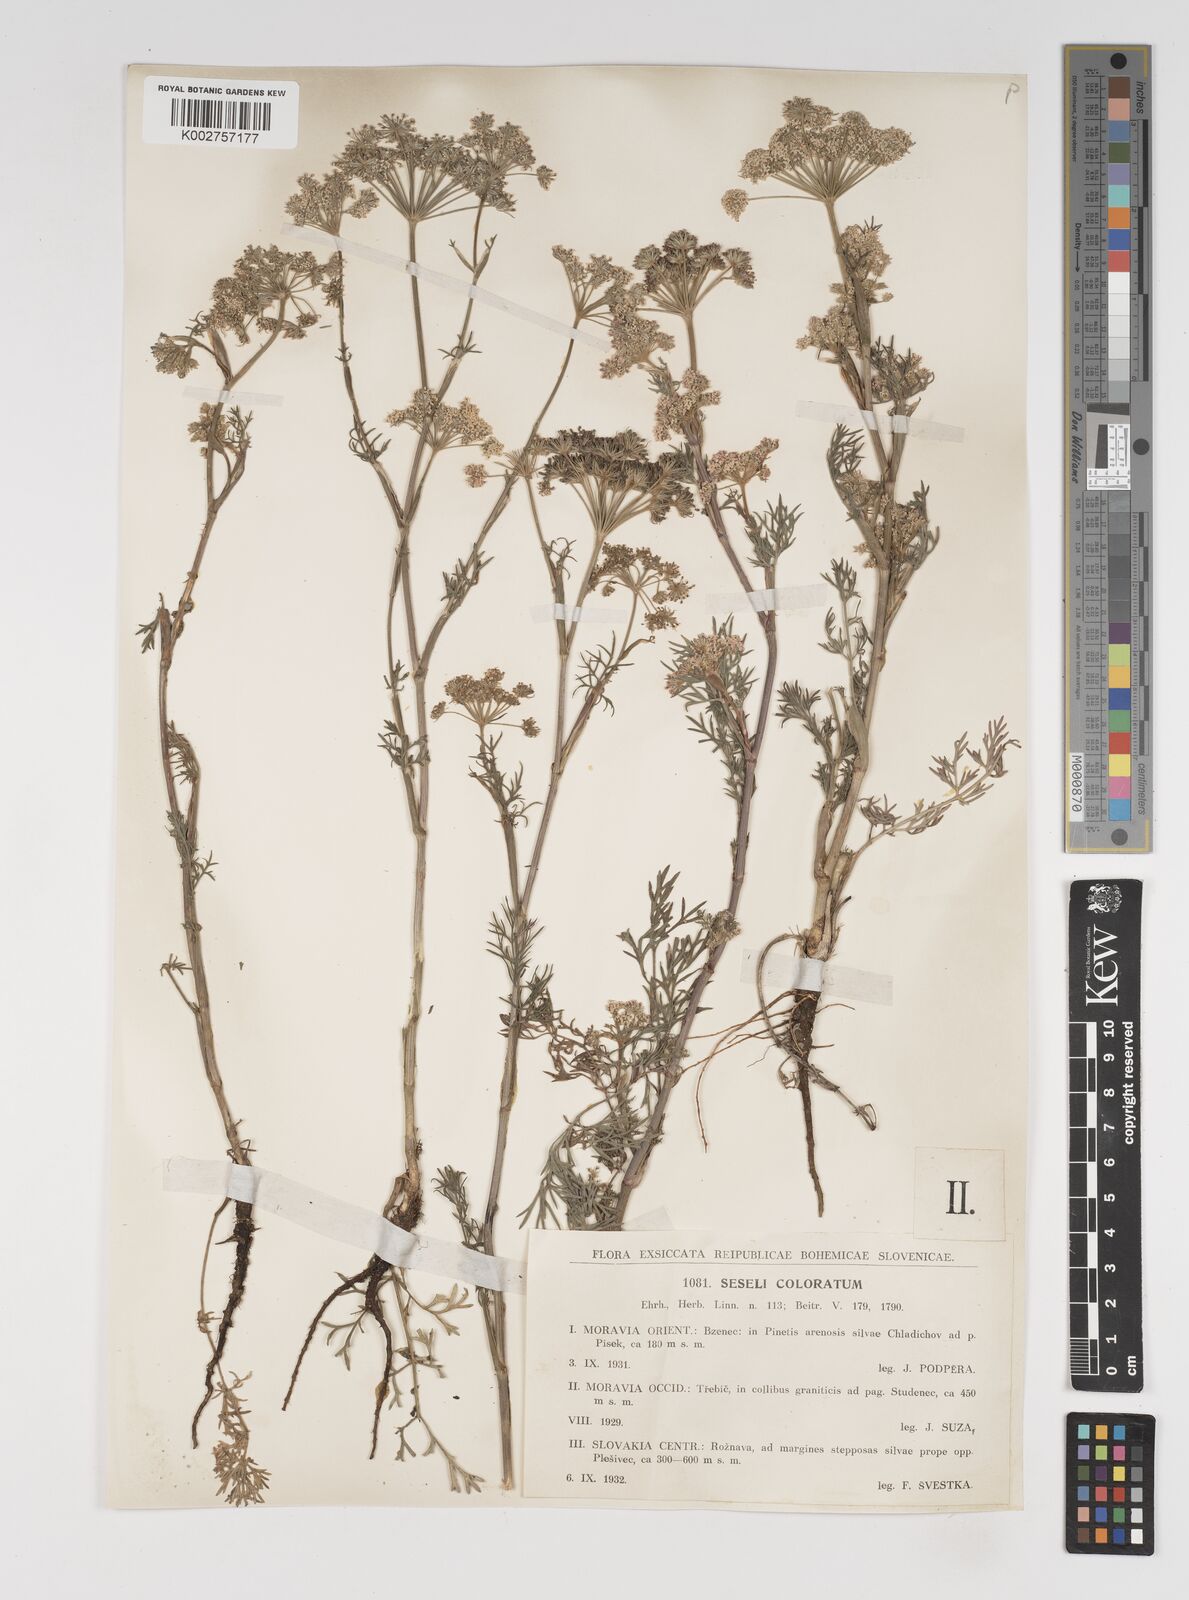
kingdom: Plantae
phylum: Tracheophyta
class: Magnoliopsida
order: Apiales
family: Apiaceae
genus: Seseli
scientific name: Seseli annuum
